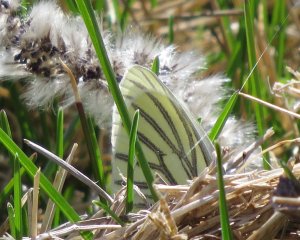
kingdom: Animalia
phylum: Arthropoda
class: Insecta
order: Lepidoptera
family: Pieridae
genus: Pieris
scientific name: Pieris oleracea
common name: Mustard White
